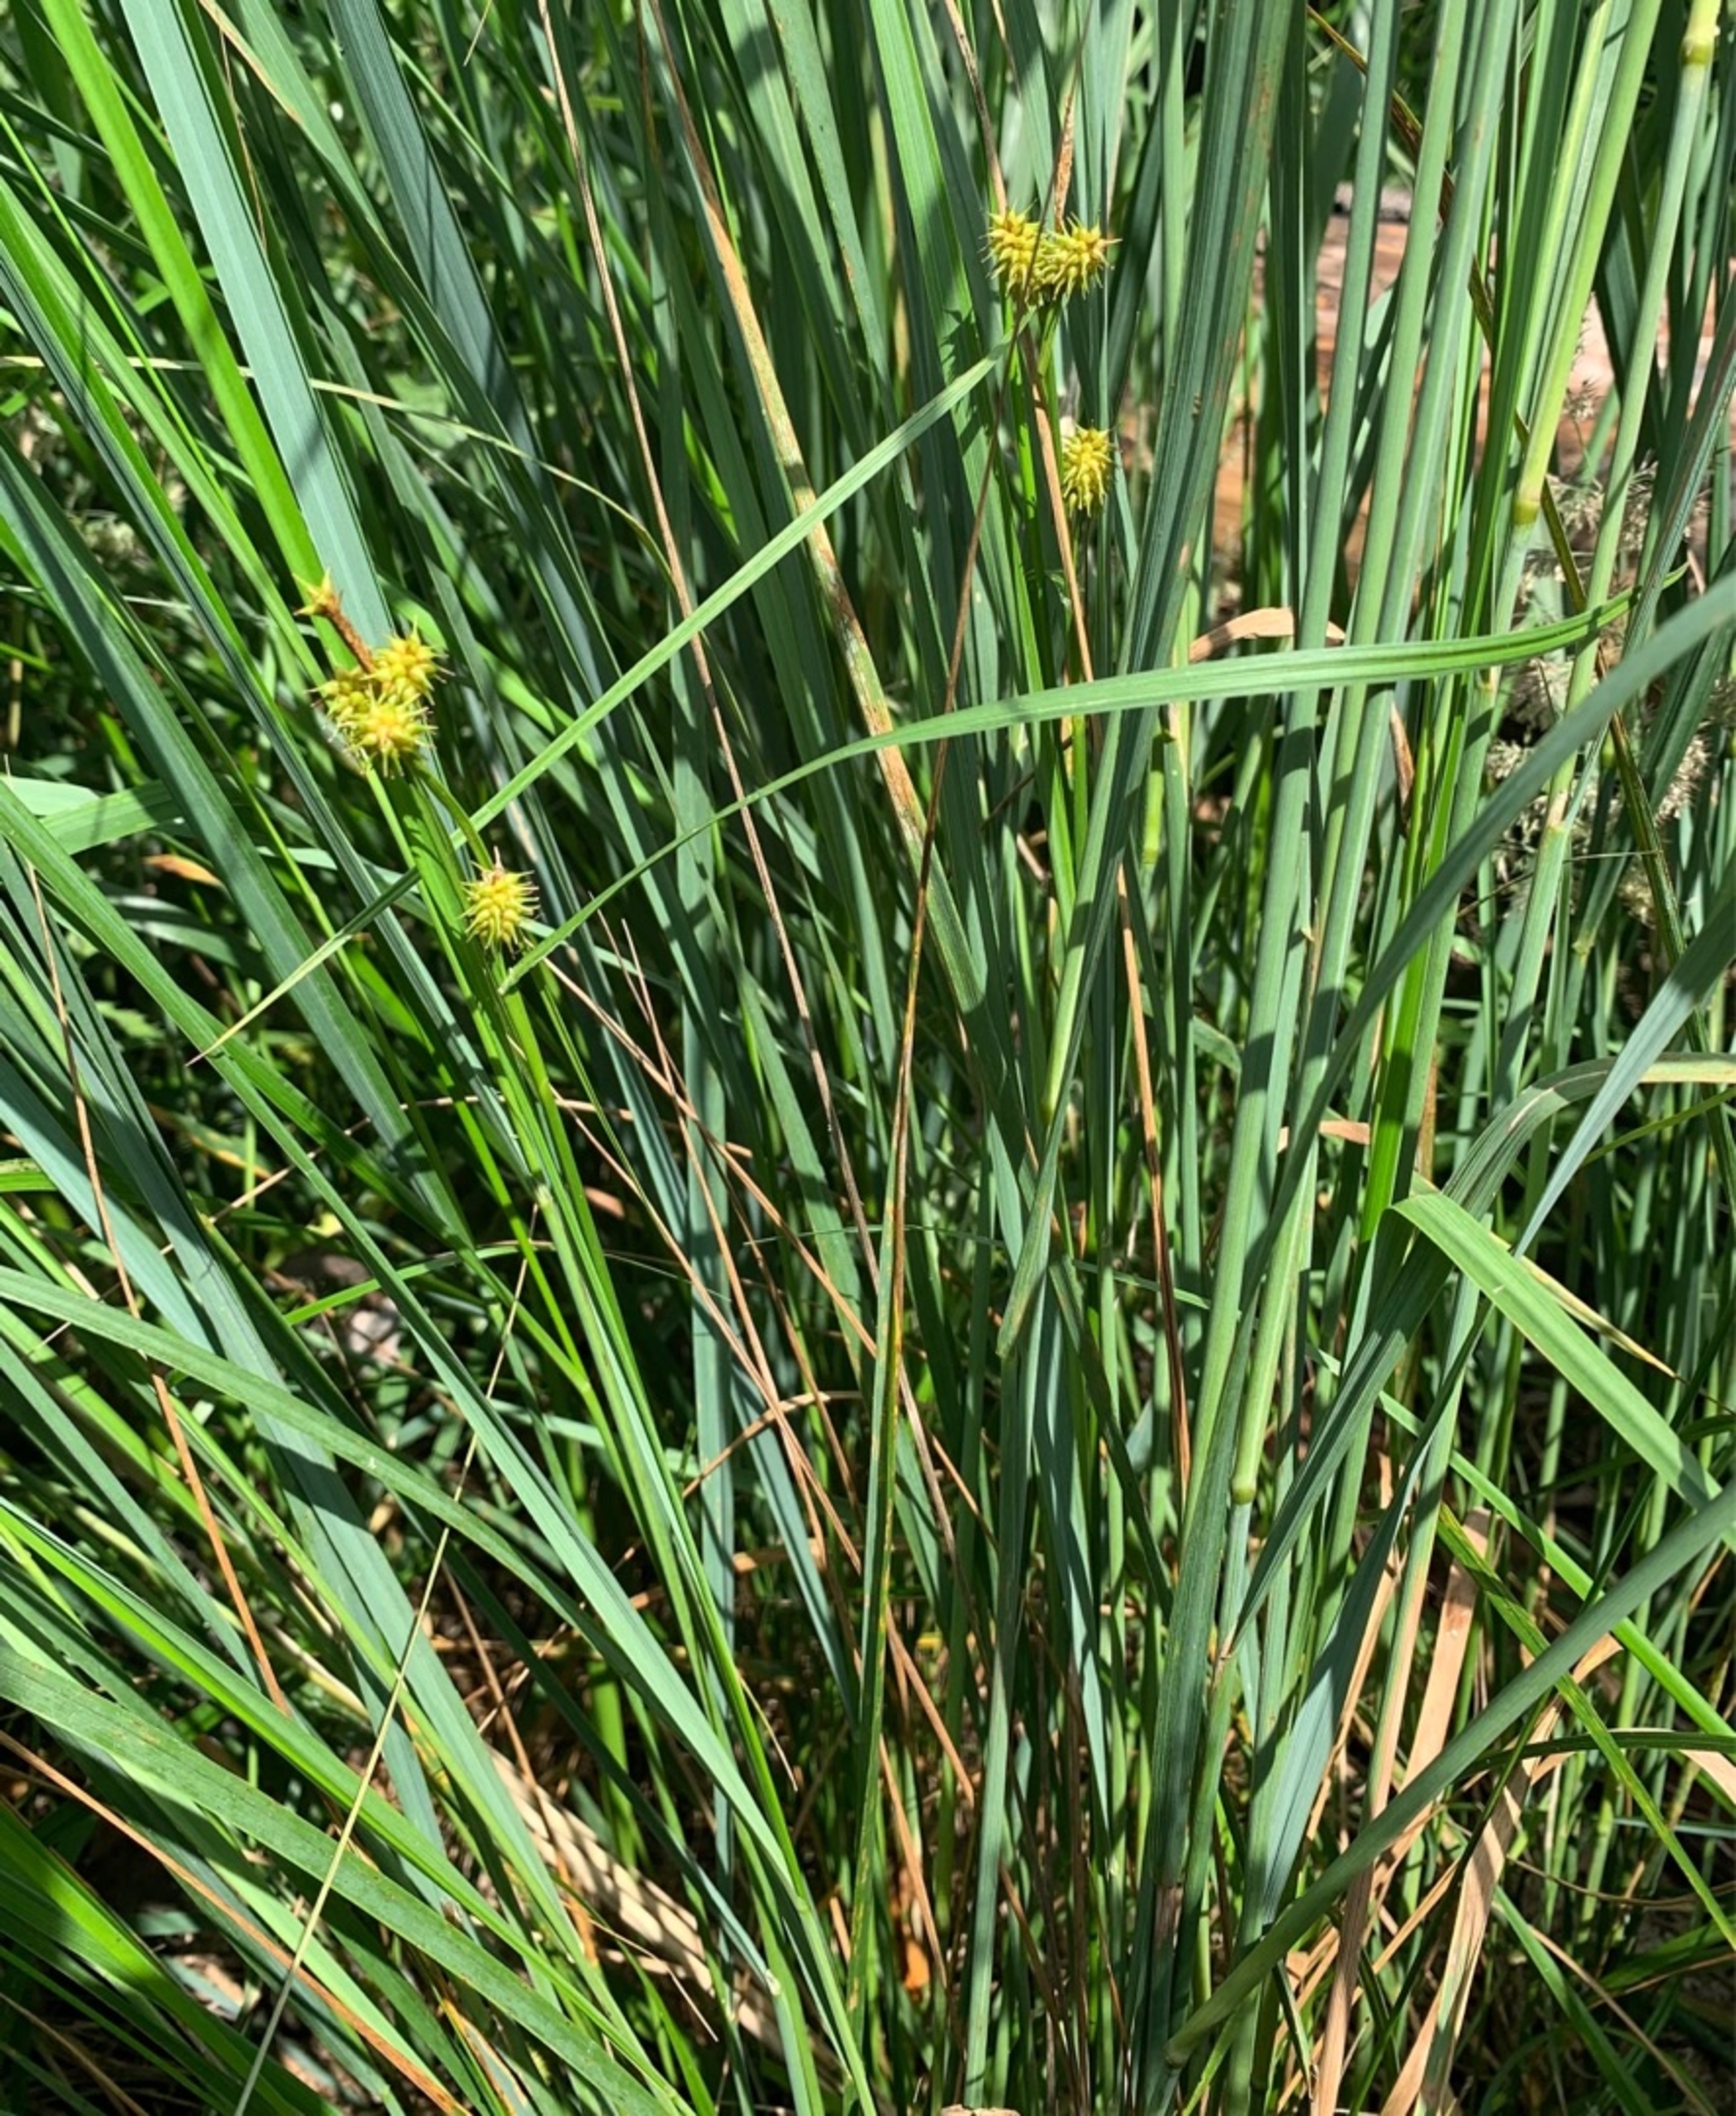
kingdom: Plantae
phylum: Tracheophyta
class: Liliopsida
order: Poales
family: Cyperaceae
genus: Carex
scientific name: Carex flava
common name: Gul star
